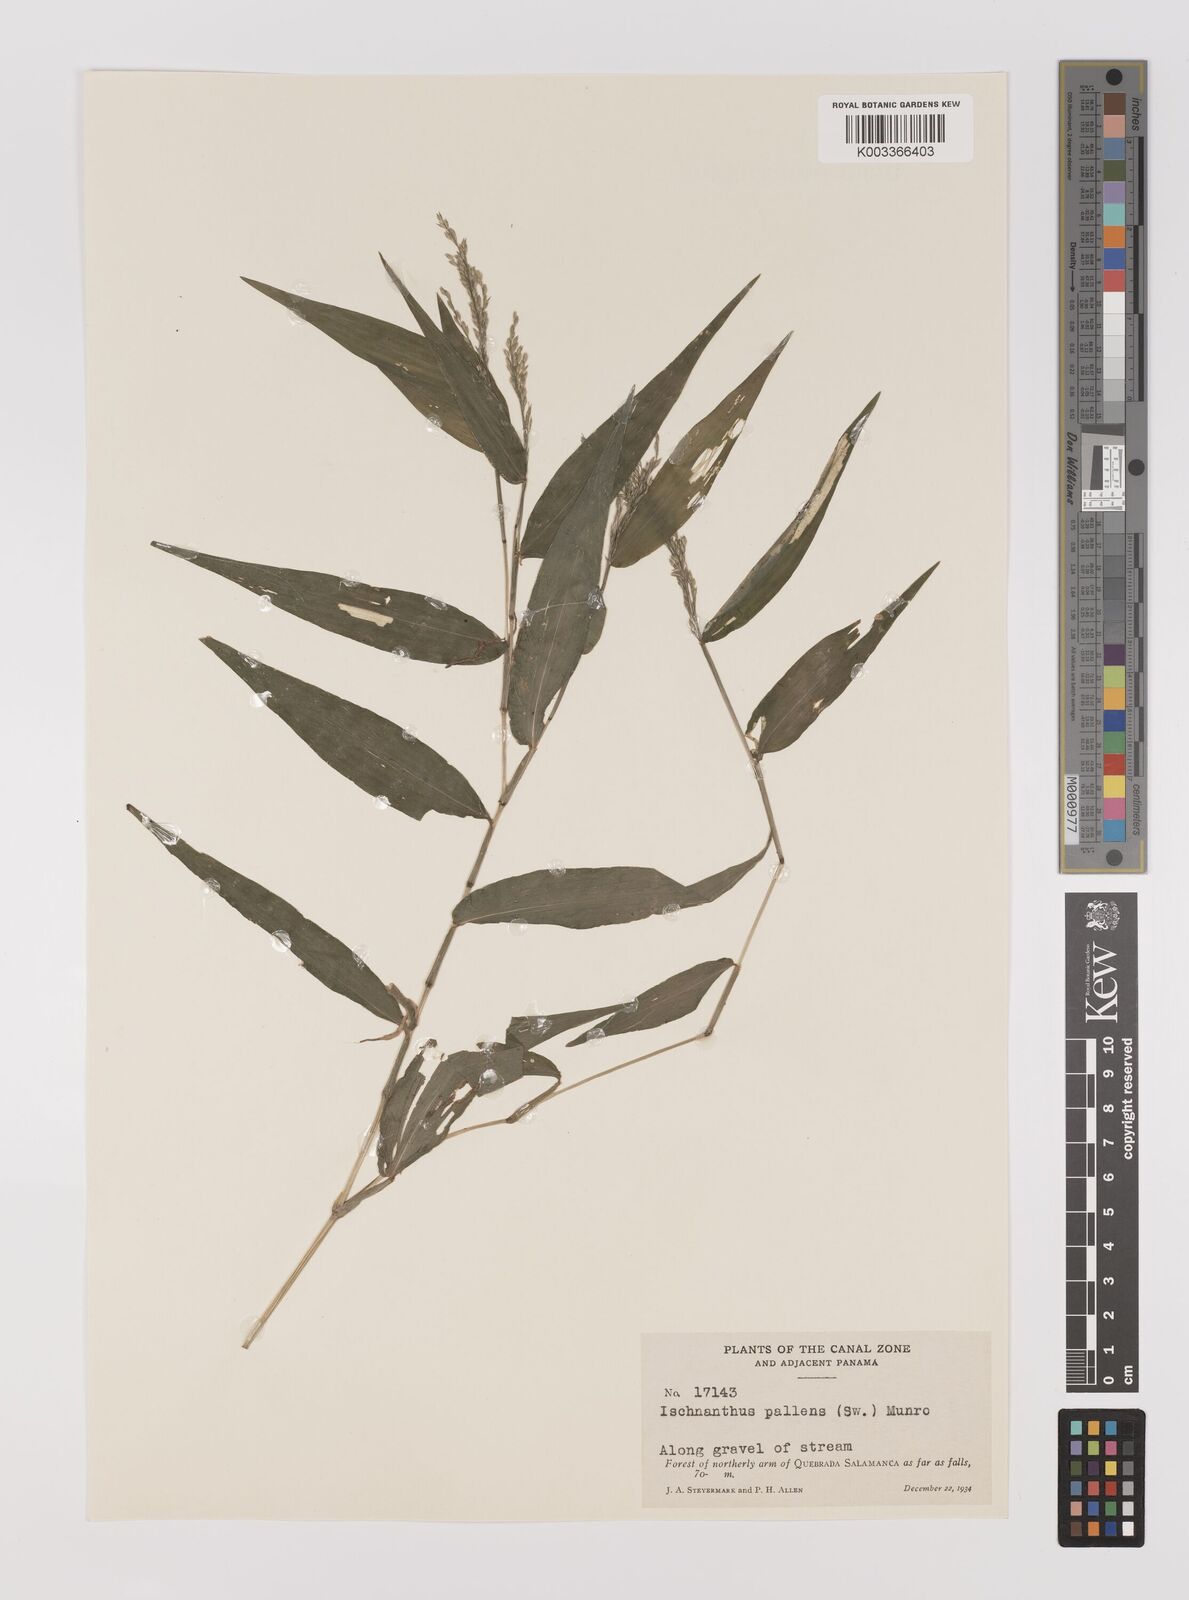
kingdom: Plantae
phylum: Tracheophyta
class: Liliopsida
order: Poales
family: Poaceae
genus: Ichnanthus
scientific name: Ichnanthus pallens
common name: Water grass
